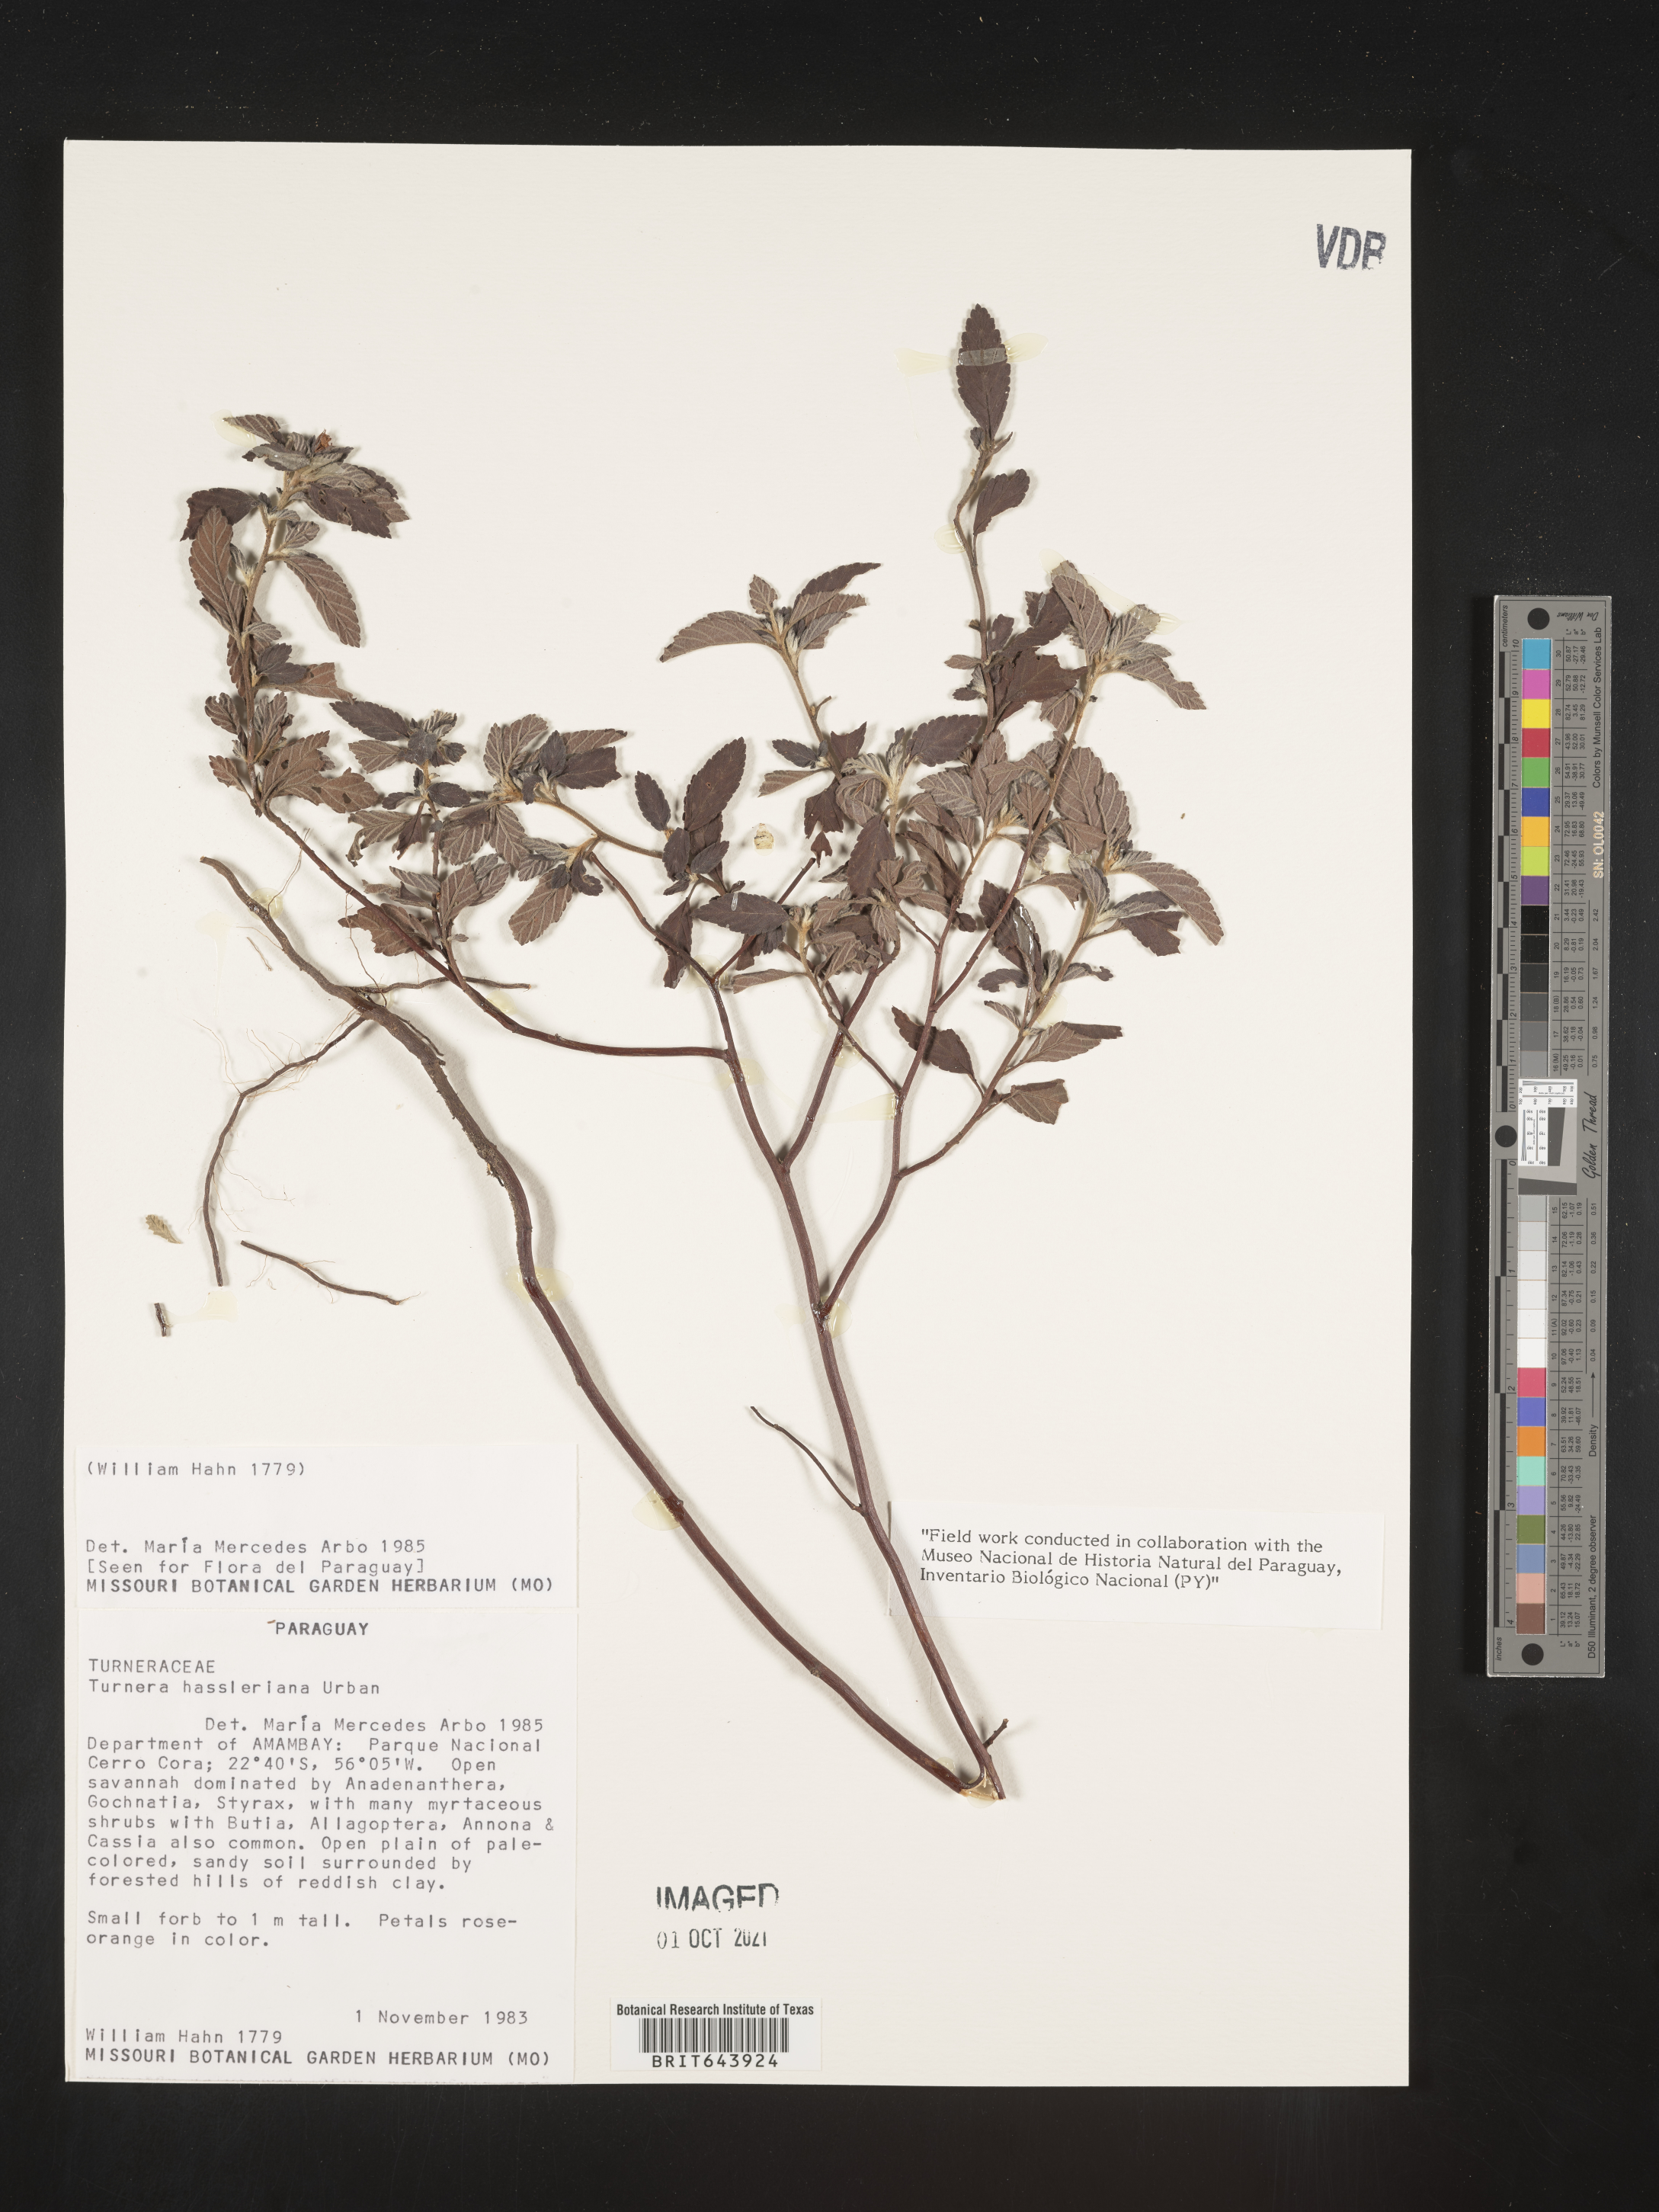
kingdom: Plantae
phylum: Tracheophyta
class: Magnoliopsida
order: Malpighiales
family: Turneraceae
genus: Turnera
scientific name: Turnera
